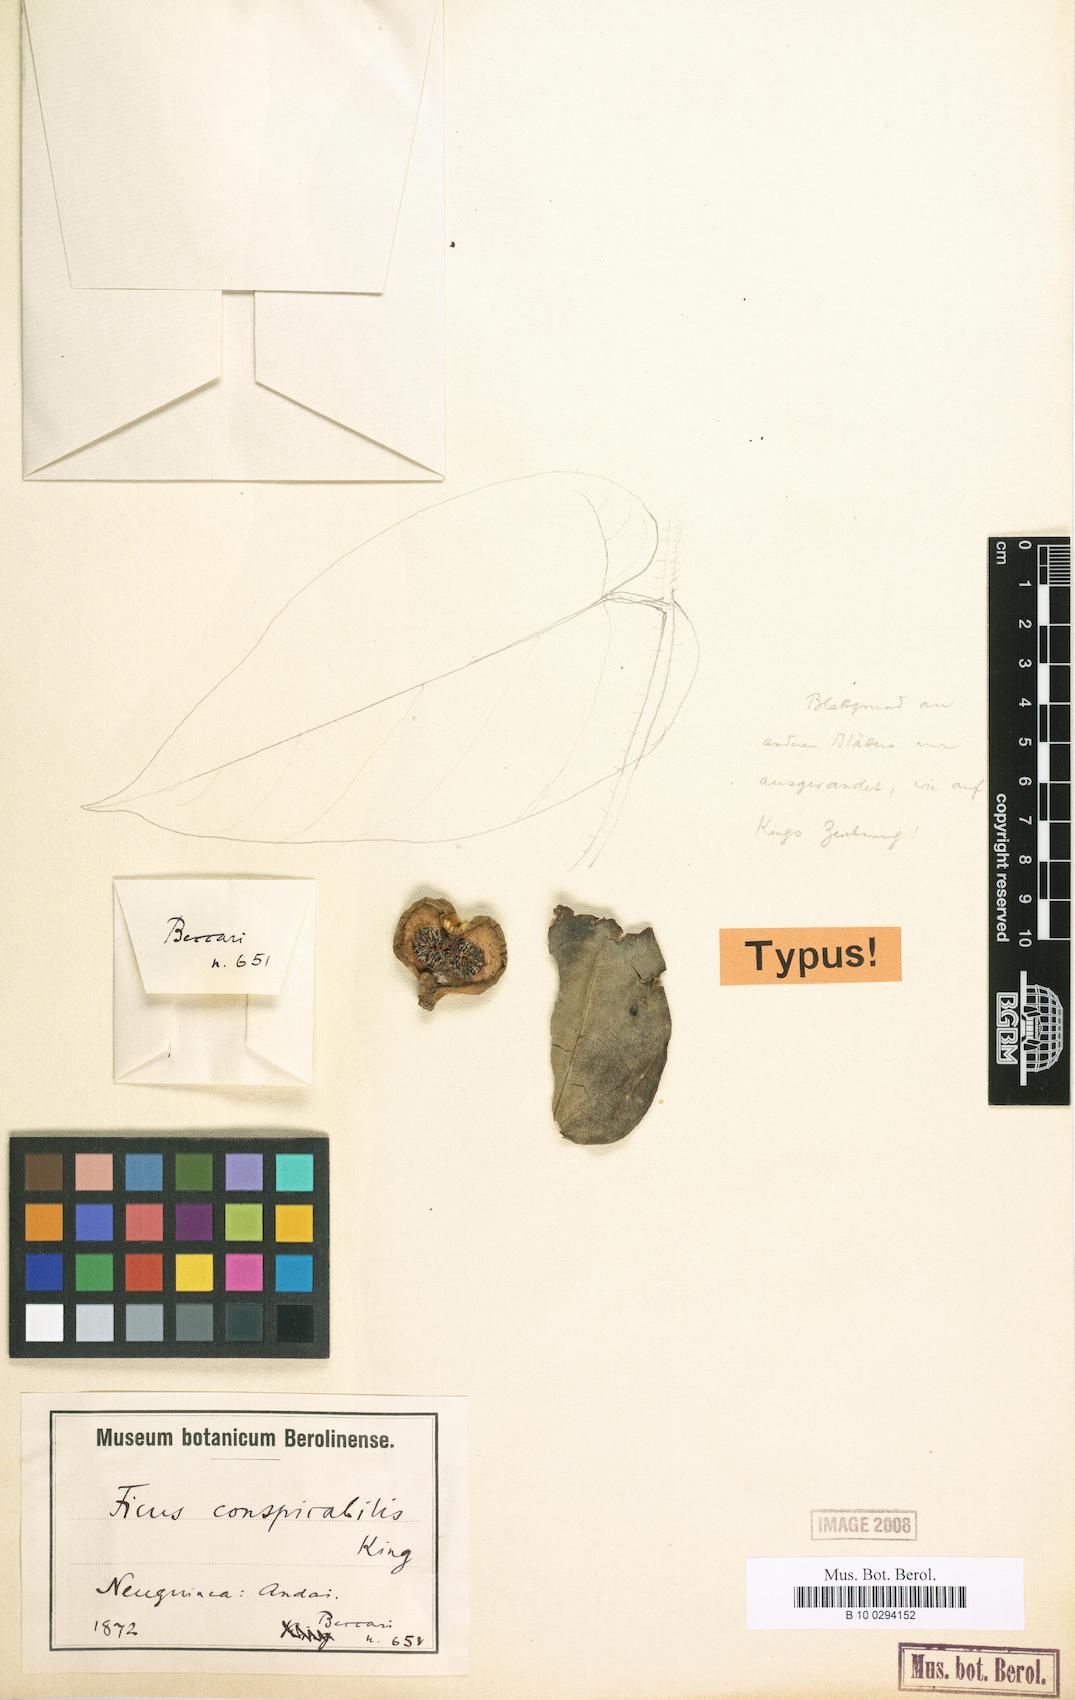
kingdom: Plantae
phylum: Tracheophyta
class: Magnoliopsida
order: Rosales
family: Moraceae
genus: Ficus
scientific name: Ficus odoardi
